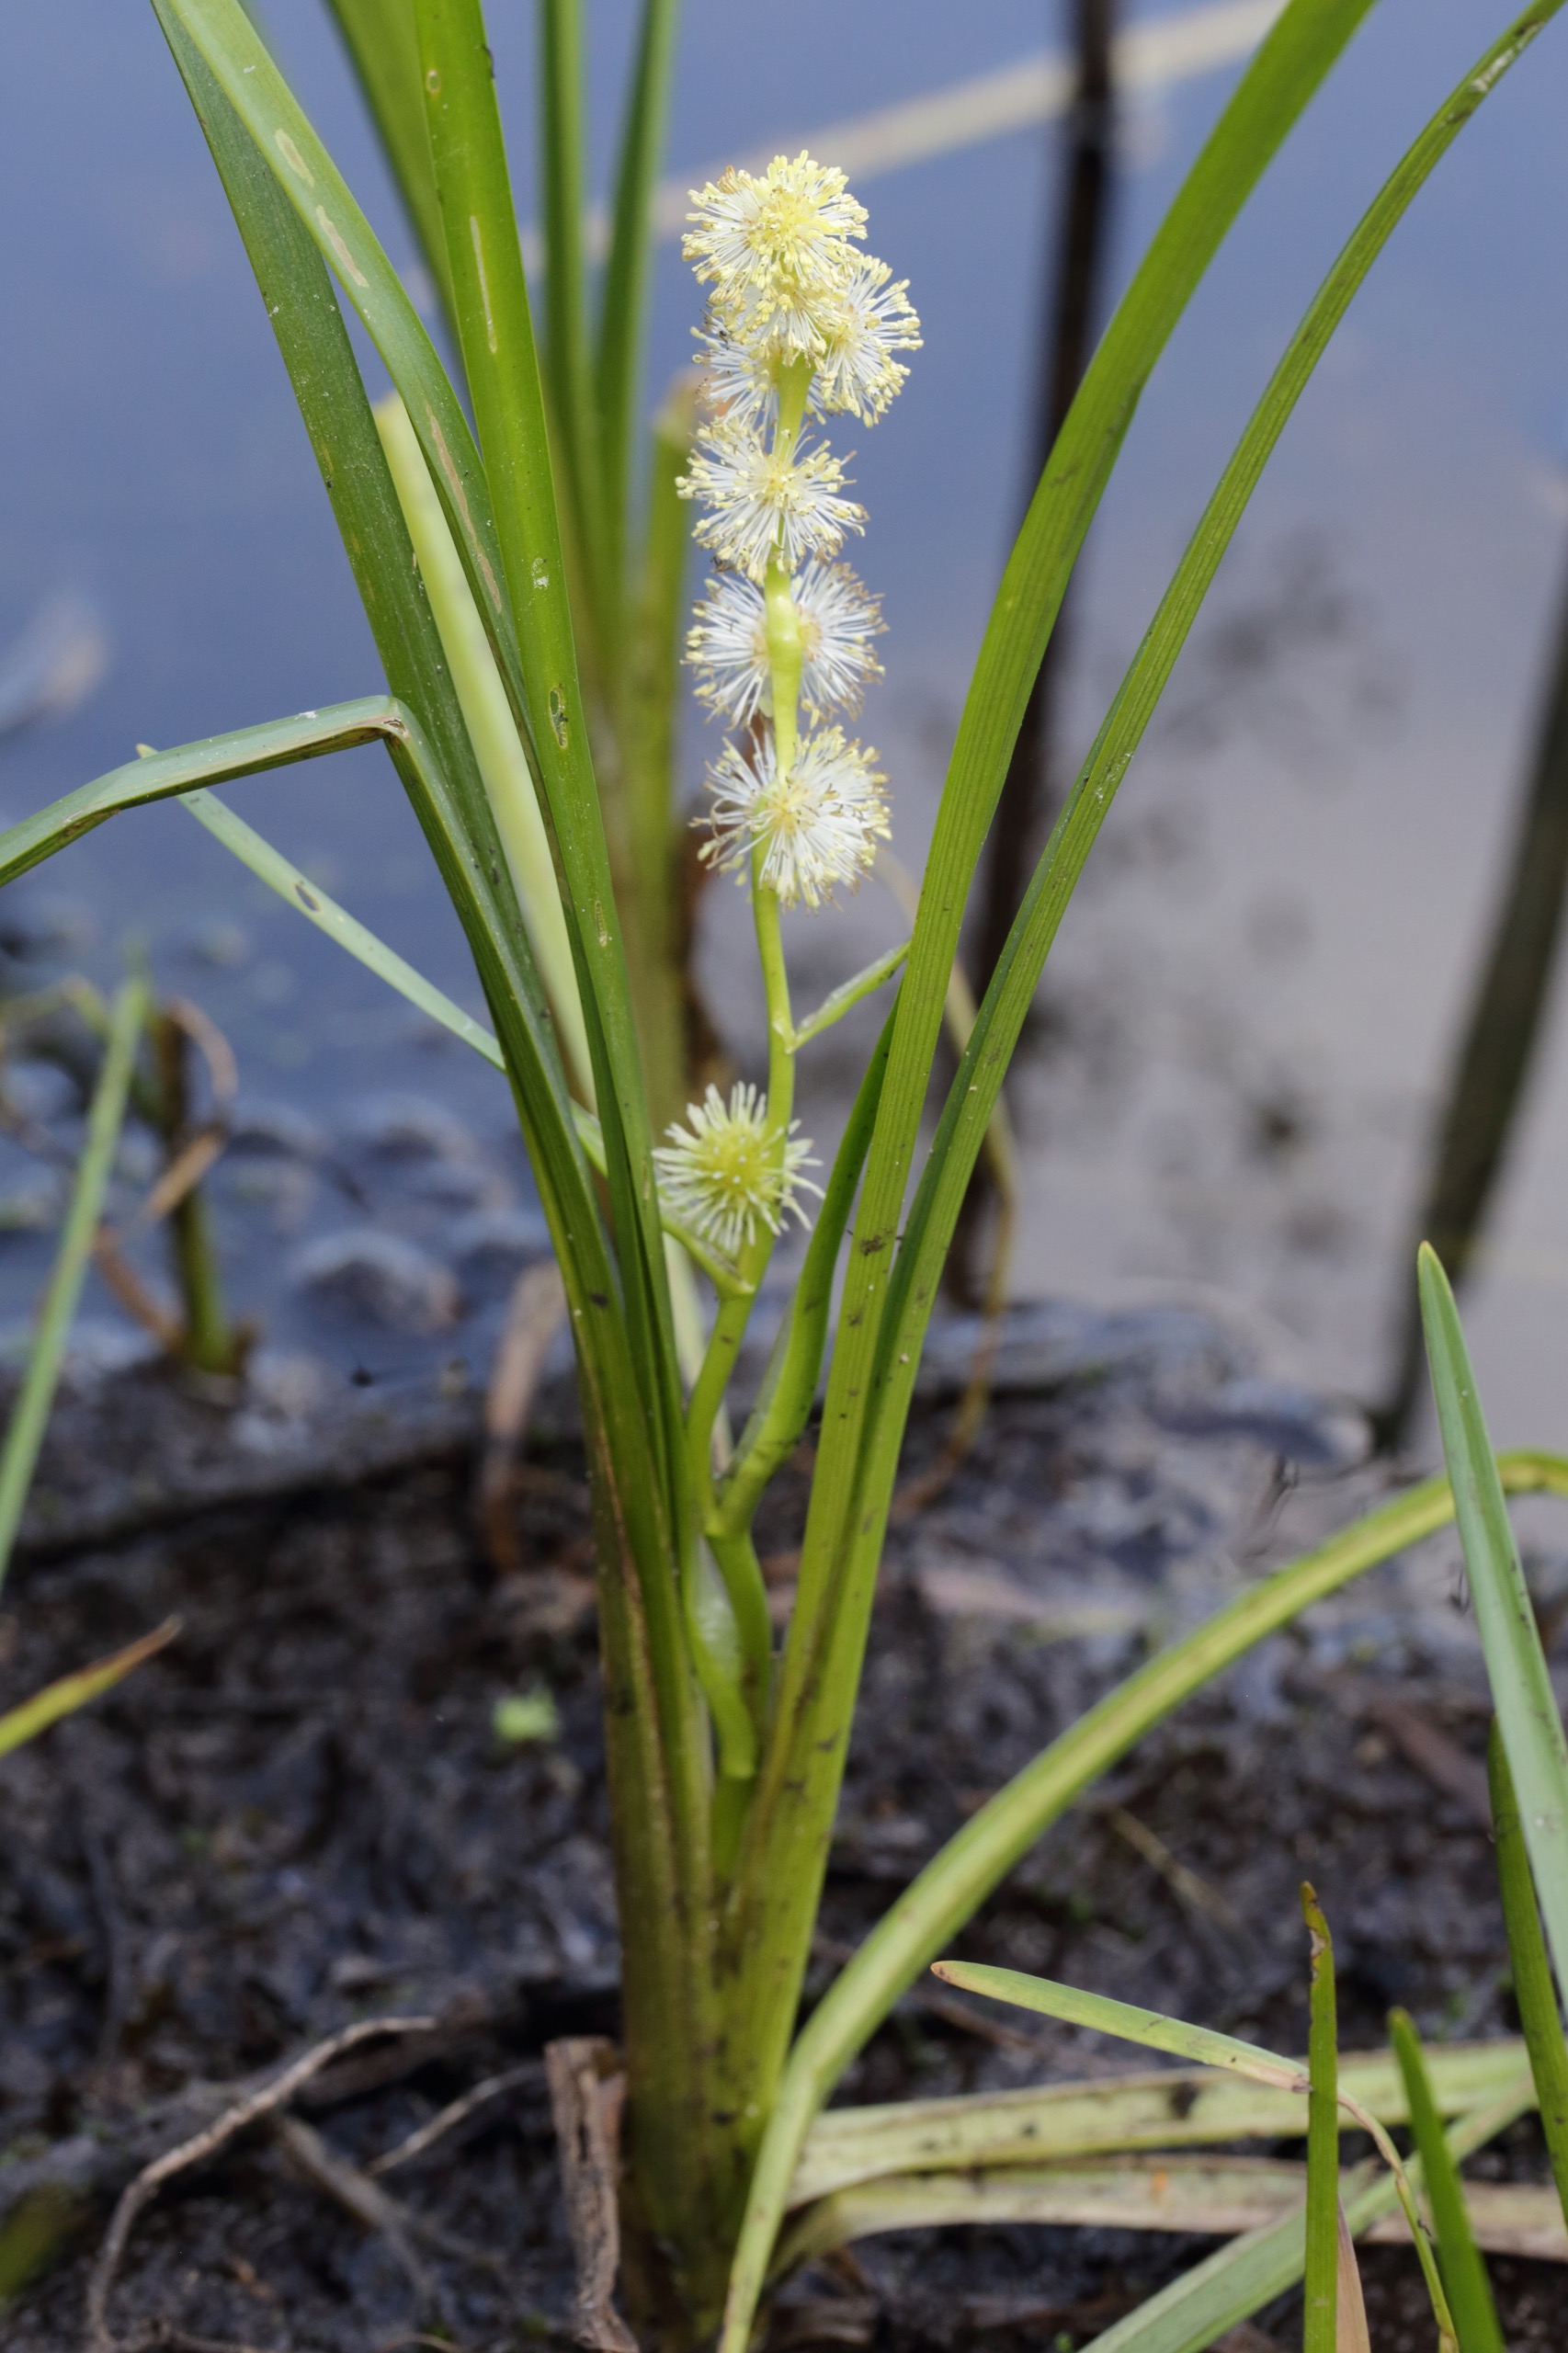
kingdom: Plantae
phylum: Tracheophyta
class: Liliopsida
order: Poales
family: Typhaceae
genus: Sparganium
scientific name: Sparganium emersum
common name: Enkelt pindsvineknop
